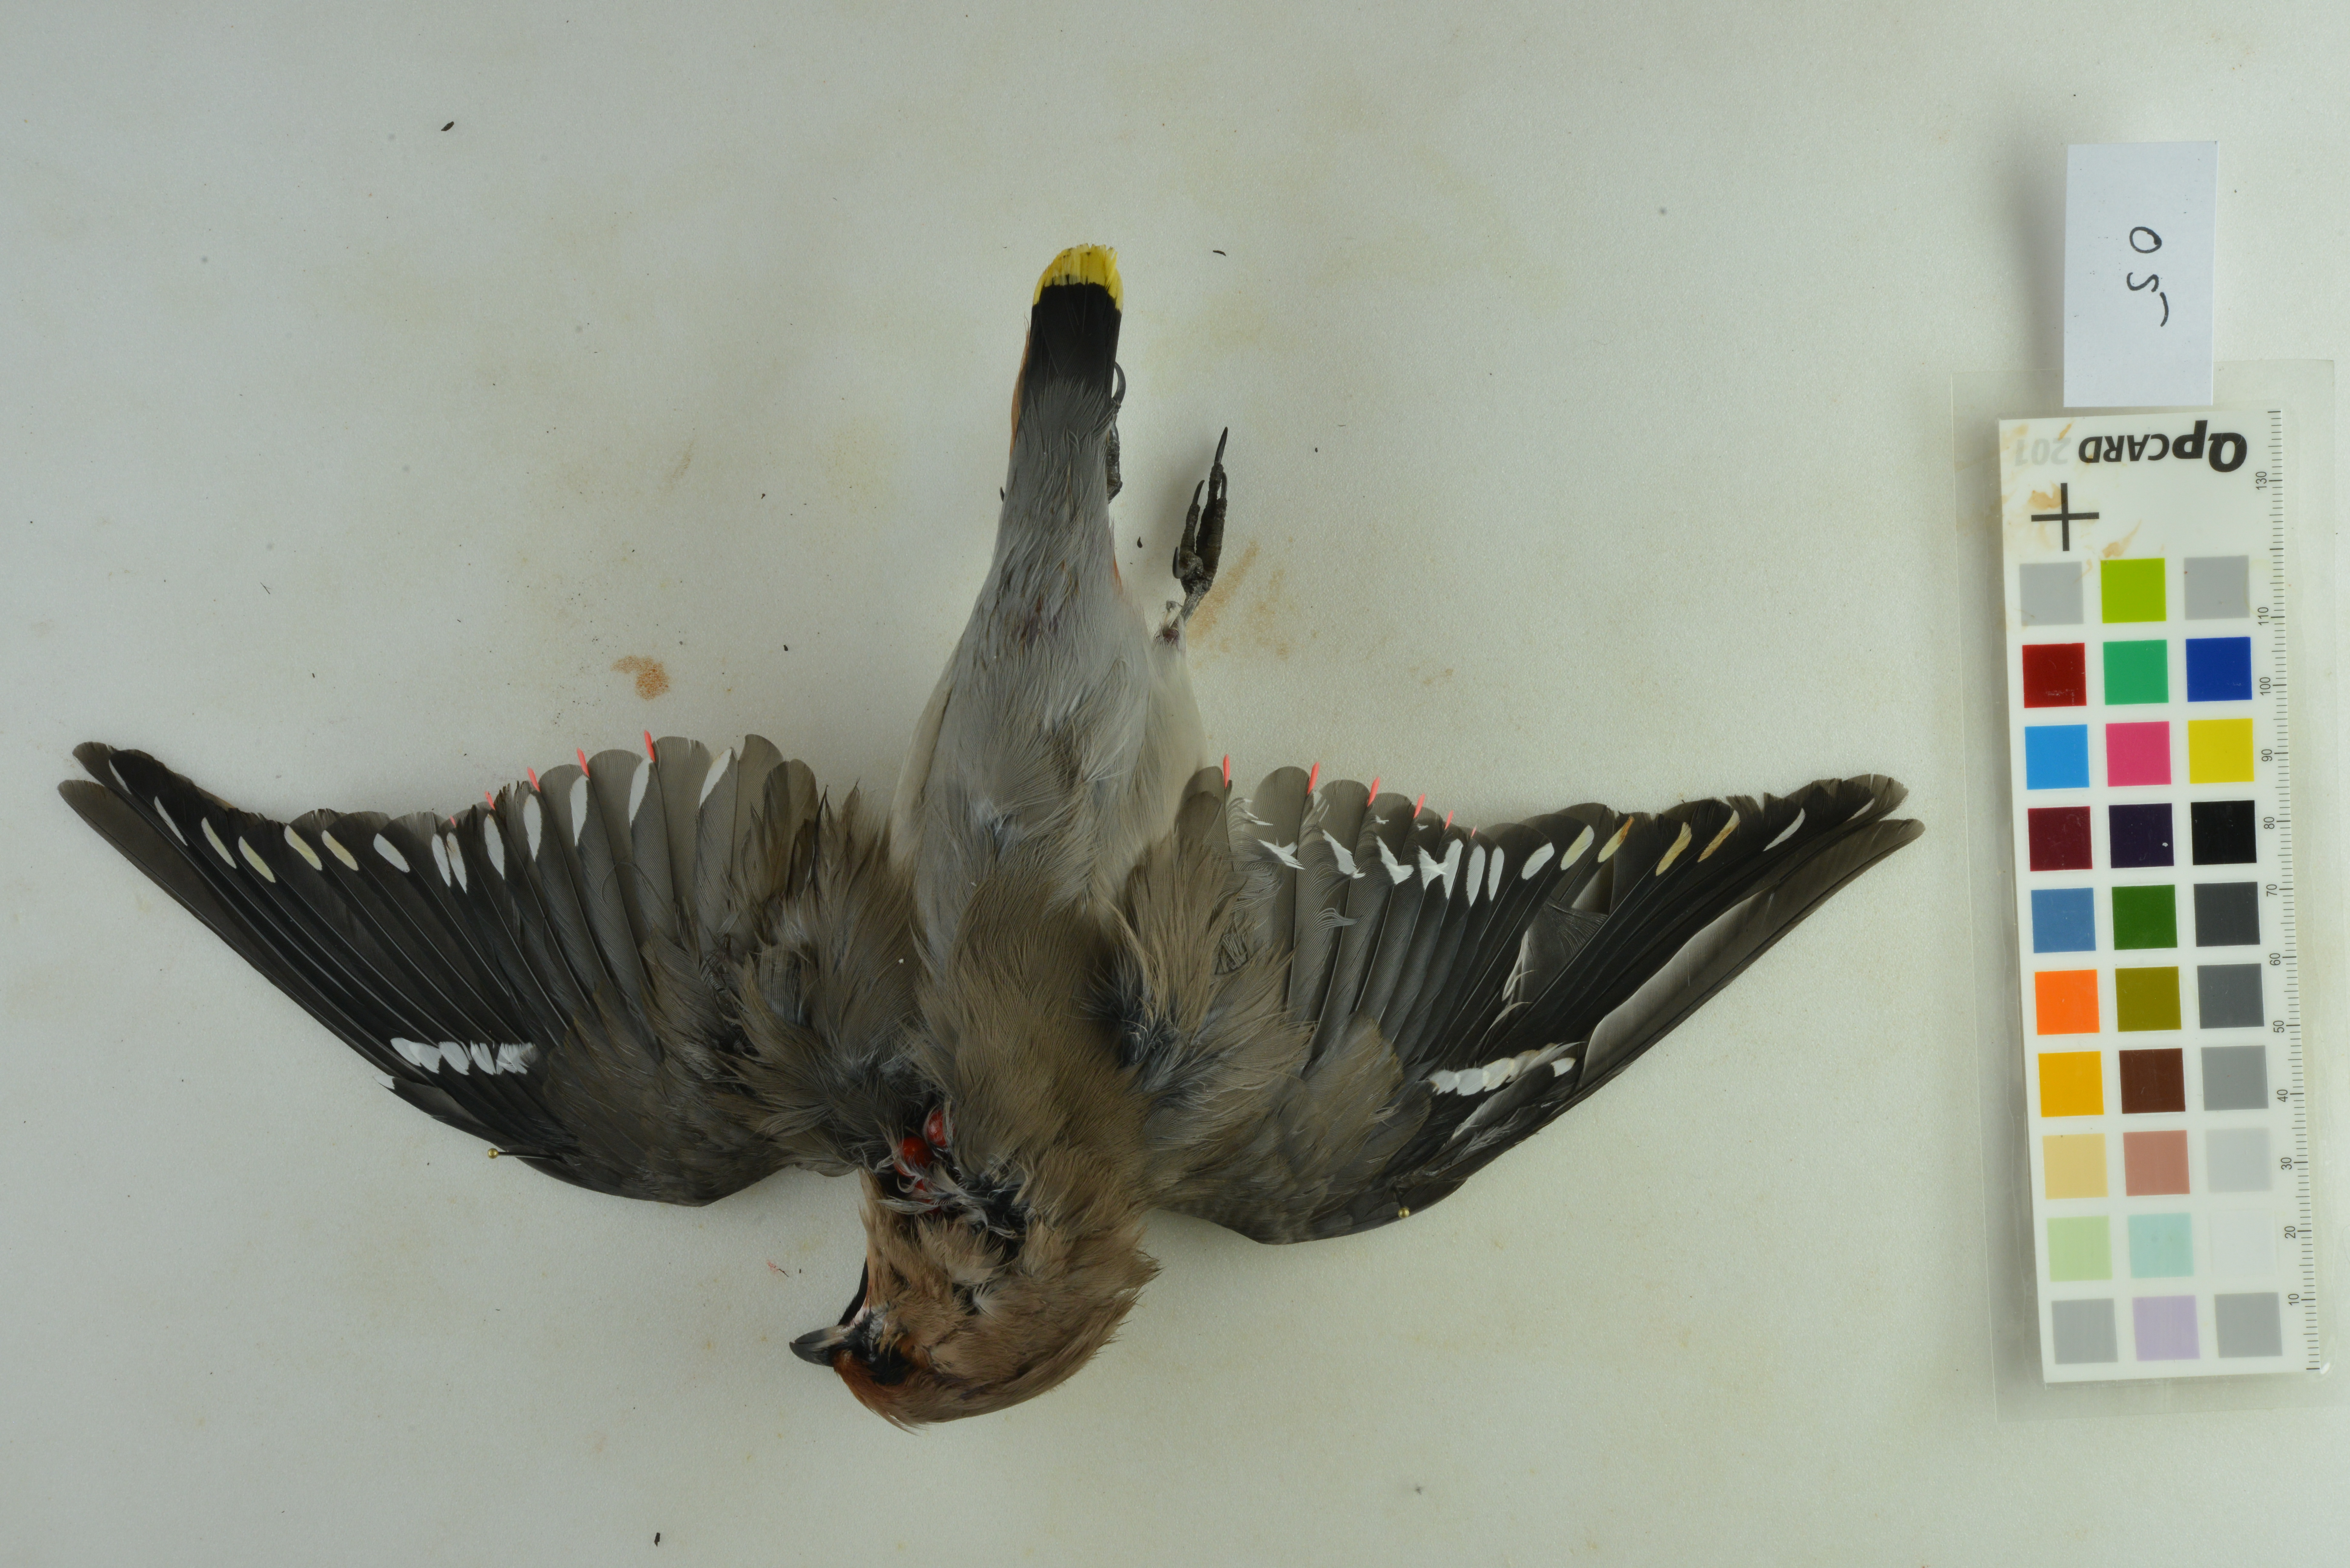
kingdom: Animalia
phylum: Chordata
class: Aves
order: Passeriformes
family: Bombycillidae
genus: Bombycilla
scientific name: Bombycilla garrulus
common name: Bohemian waxwing
